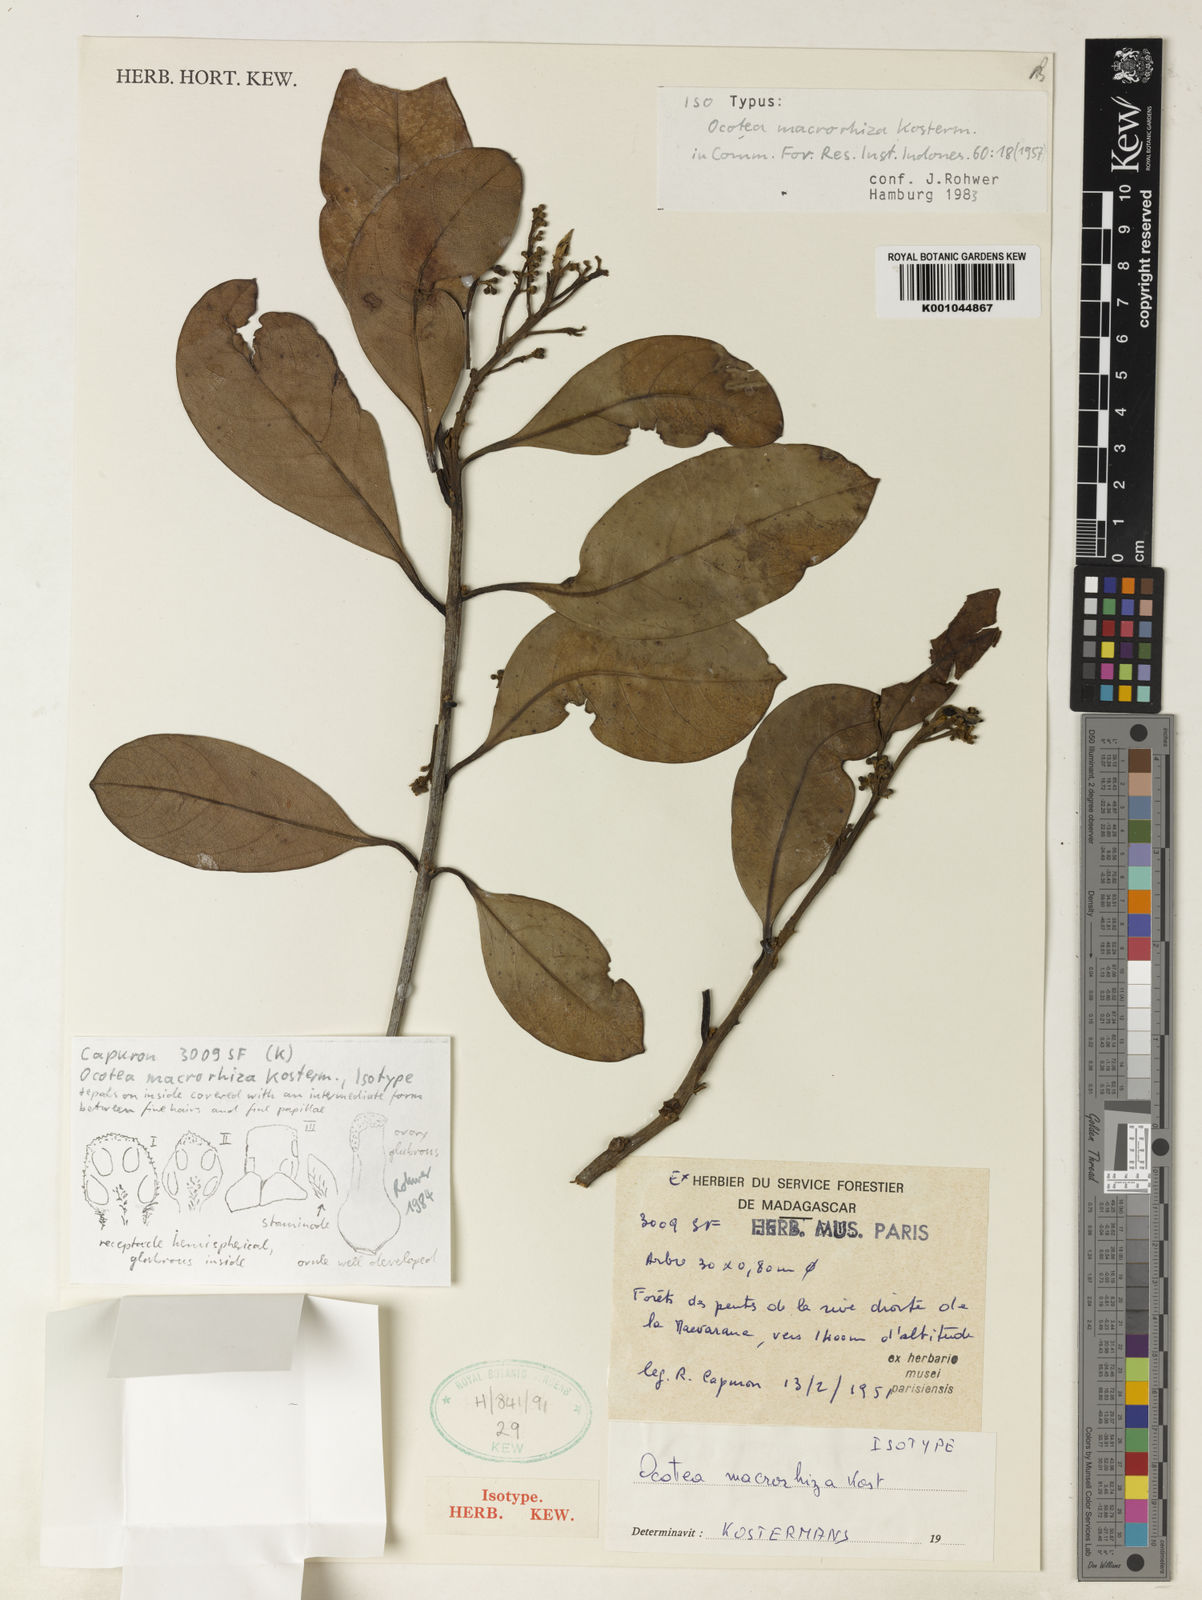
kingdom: Plantae
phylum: Tracheophyta
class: Magnoliopsida
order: Laurales
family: Lauraceae
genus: Ocotea
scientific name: Ocotea macrorhiza
